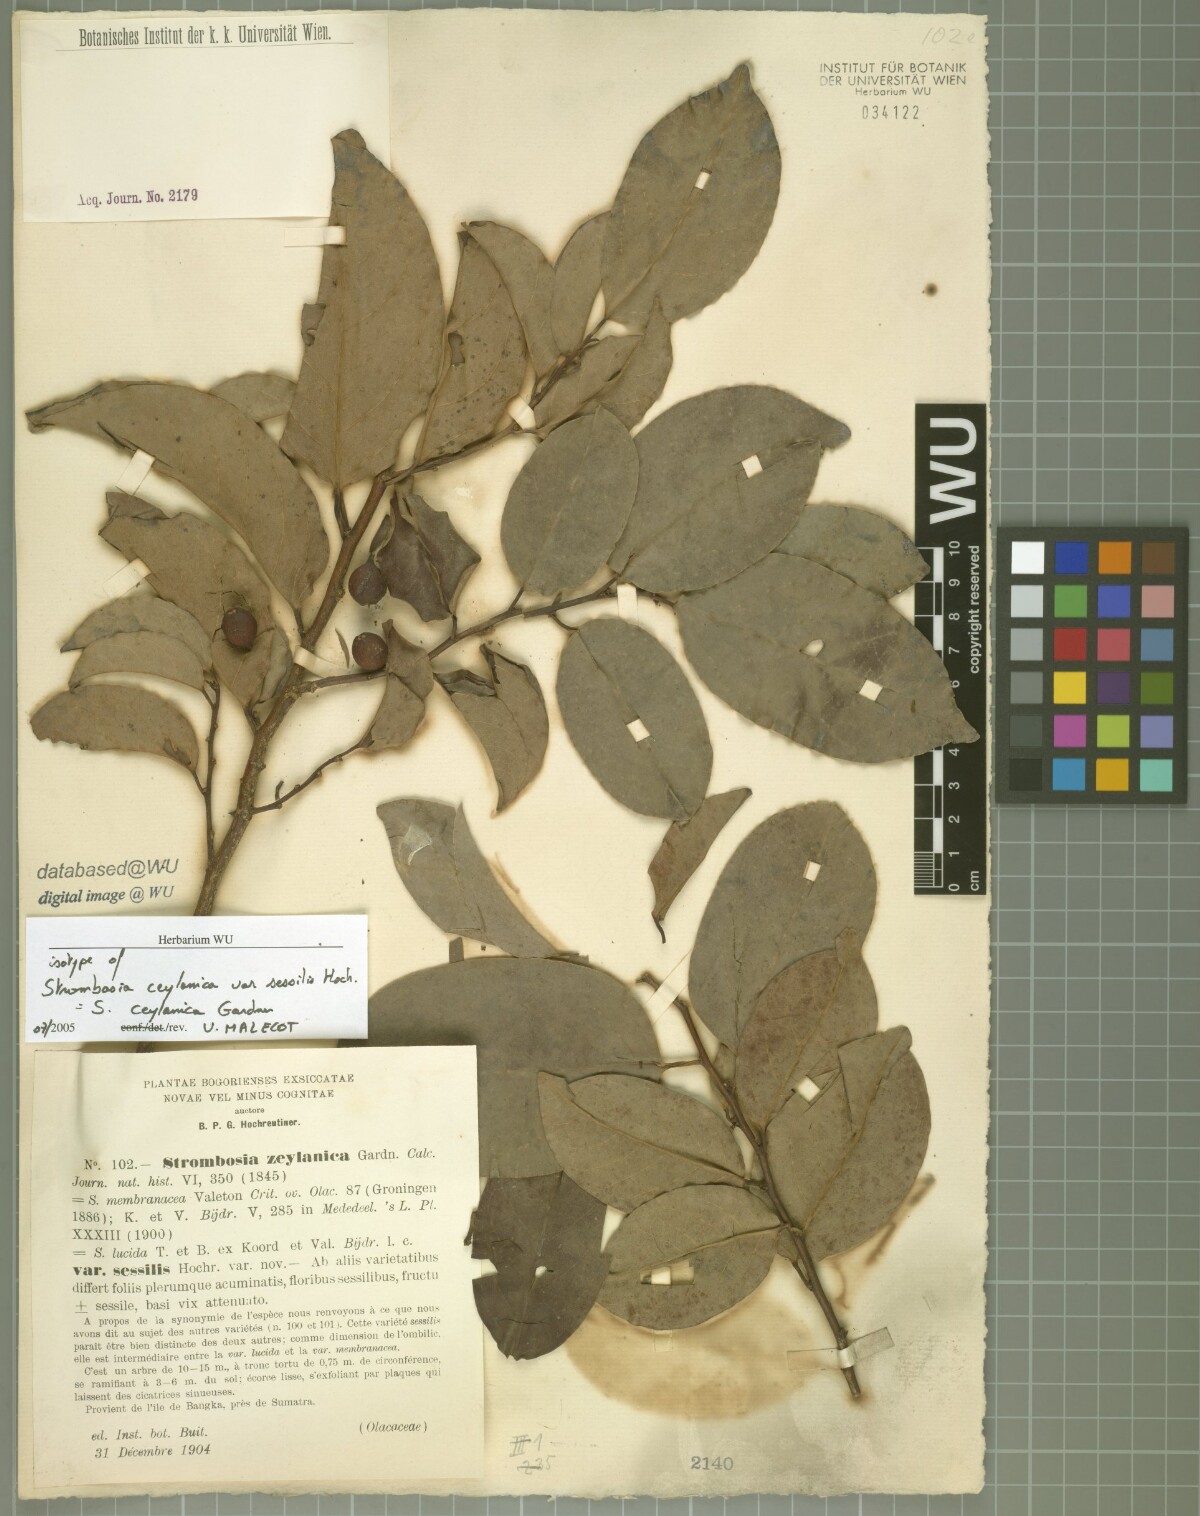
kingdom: Plantae
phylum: Tracheophyta
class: Magnoliopsida
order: Santalales
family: Strombosiaceae
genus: Strombosia
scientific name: Strombosia ceylanica
